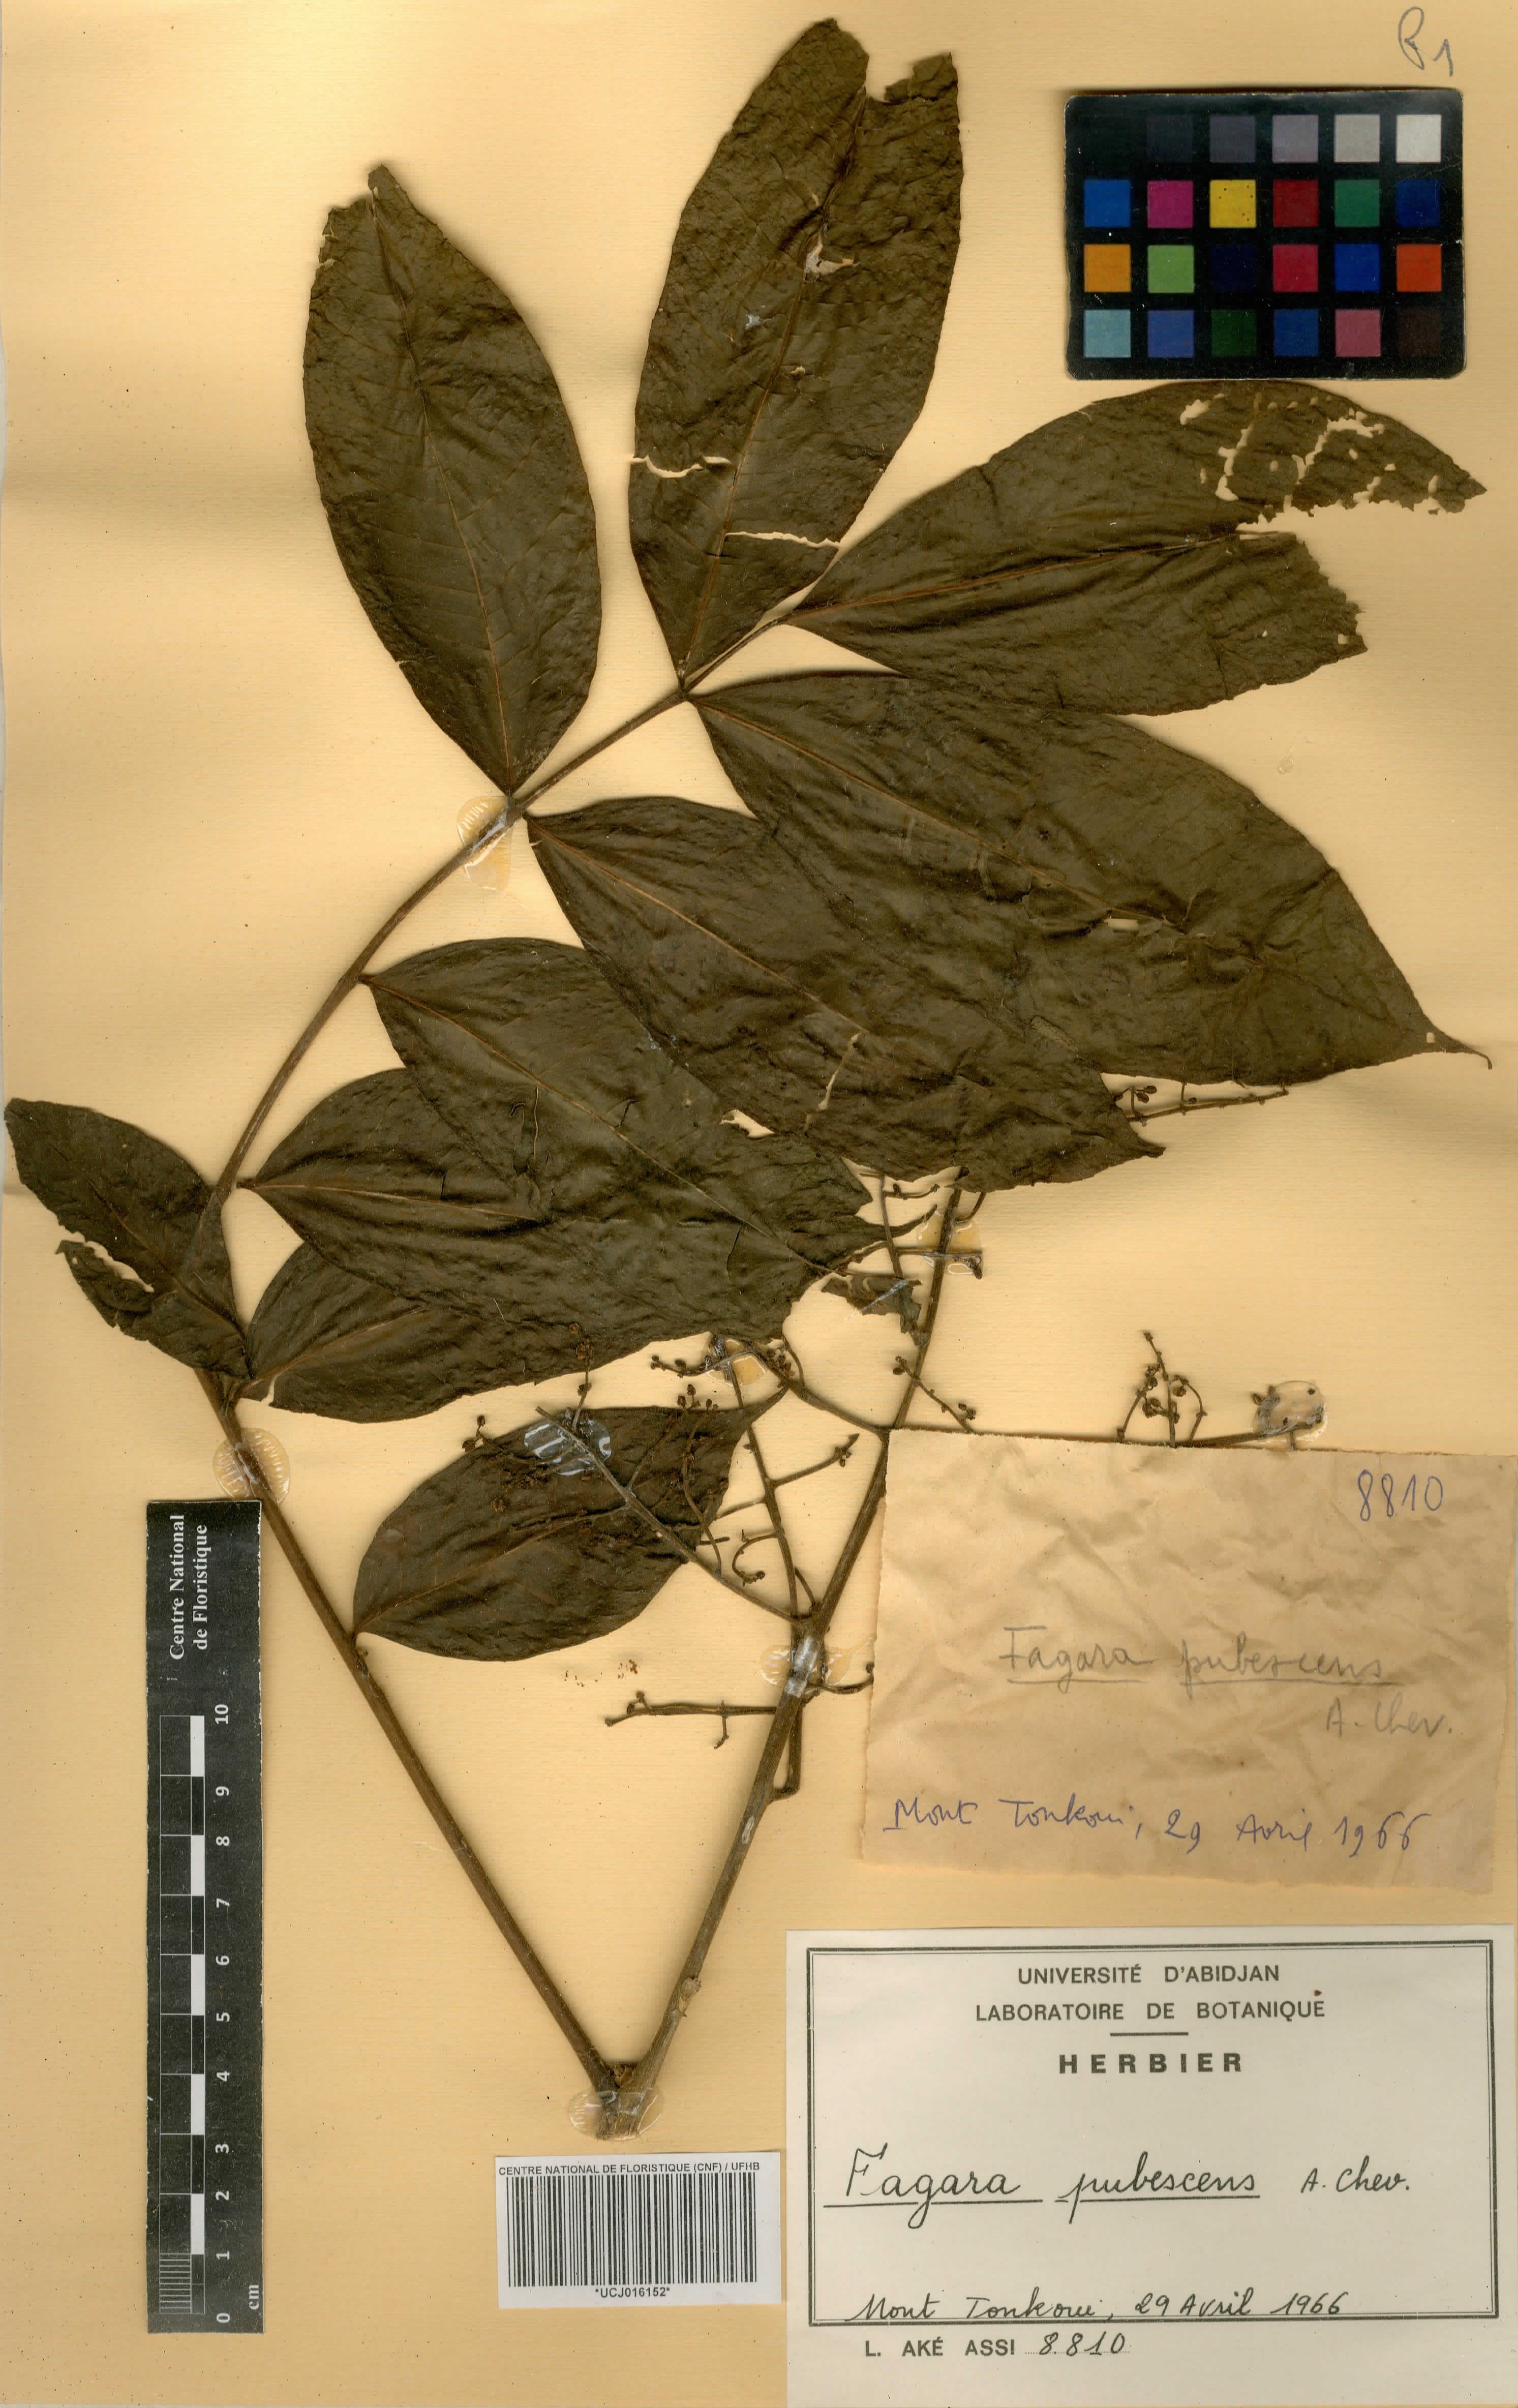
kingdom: Plantae
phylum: Tracheophyta
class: Magnoliopsida
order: Sapindales
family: Rutaceae
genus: Zanthoxylum
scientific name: Zanthoxylum chevalieri
